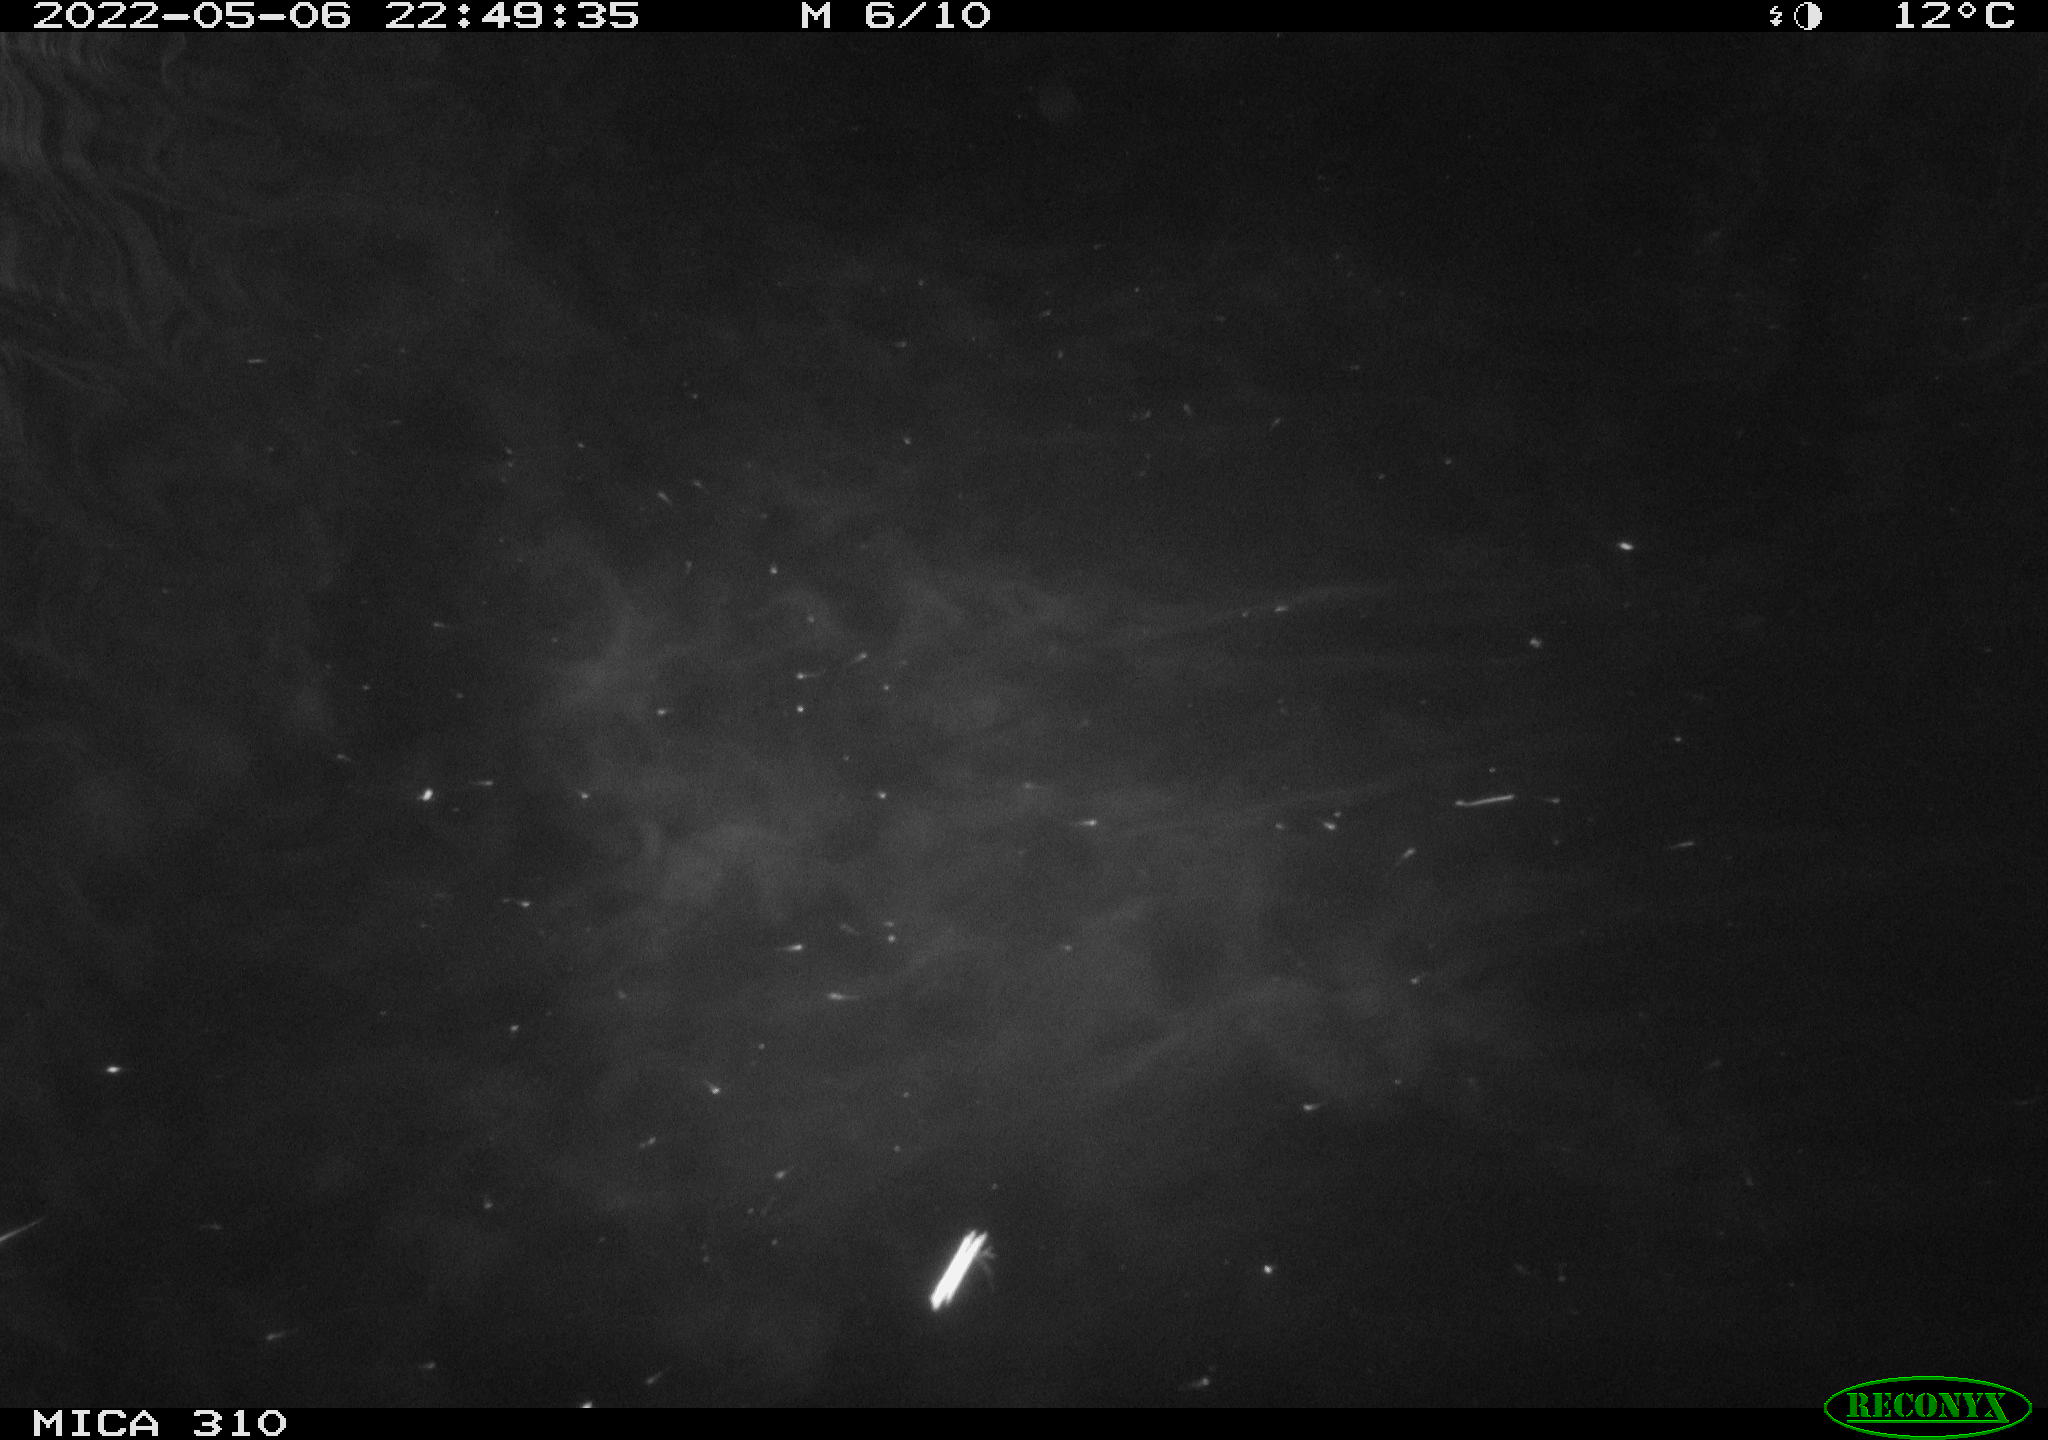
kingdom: Animalia
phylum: Chordata
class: Mammalia
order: Rodentia
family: Cricetidae
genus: Ondatra
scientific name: Ondatra zibethicus
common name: Muskrat
